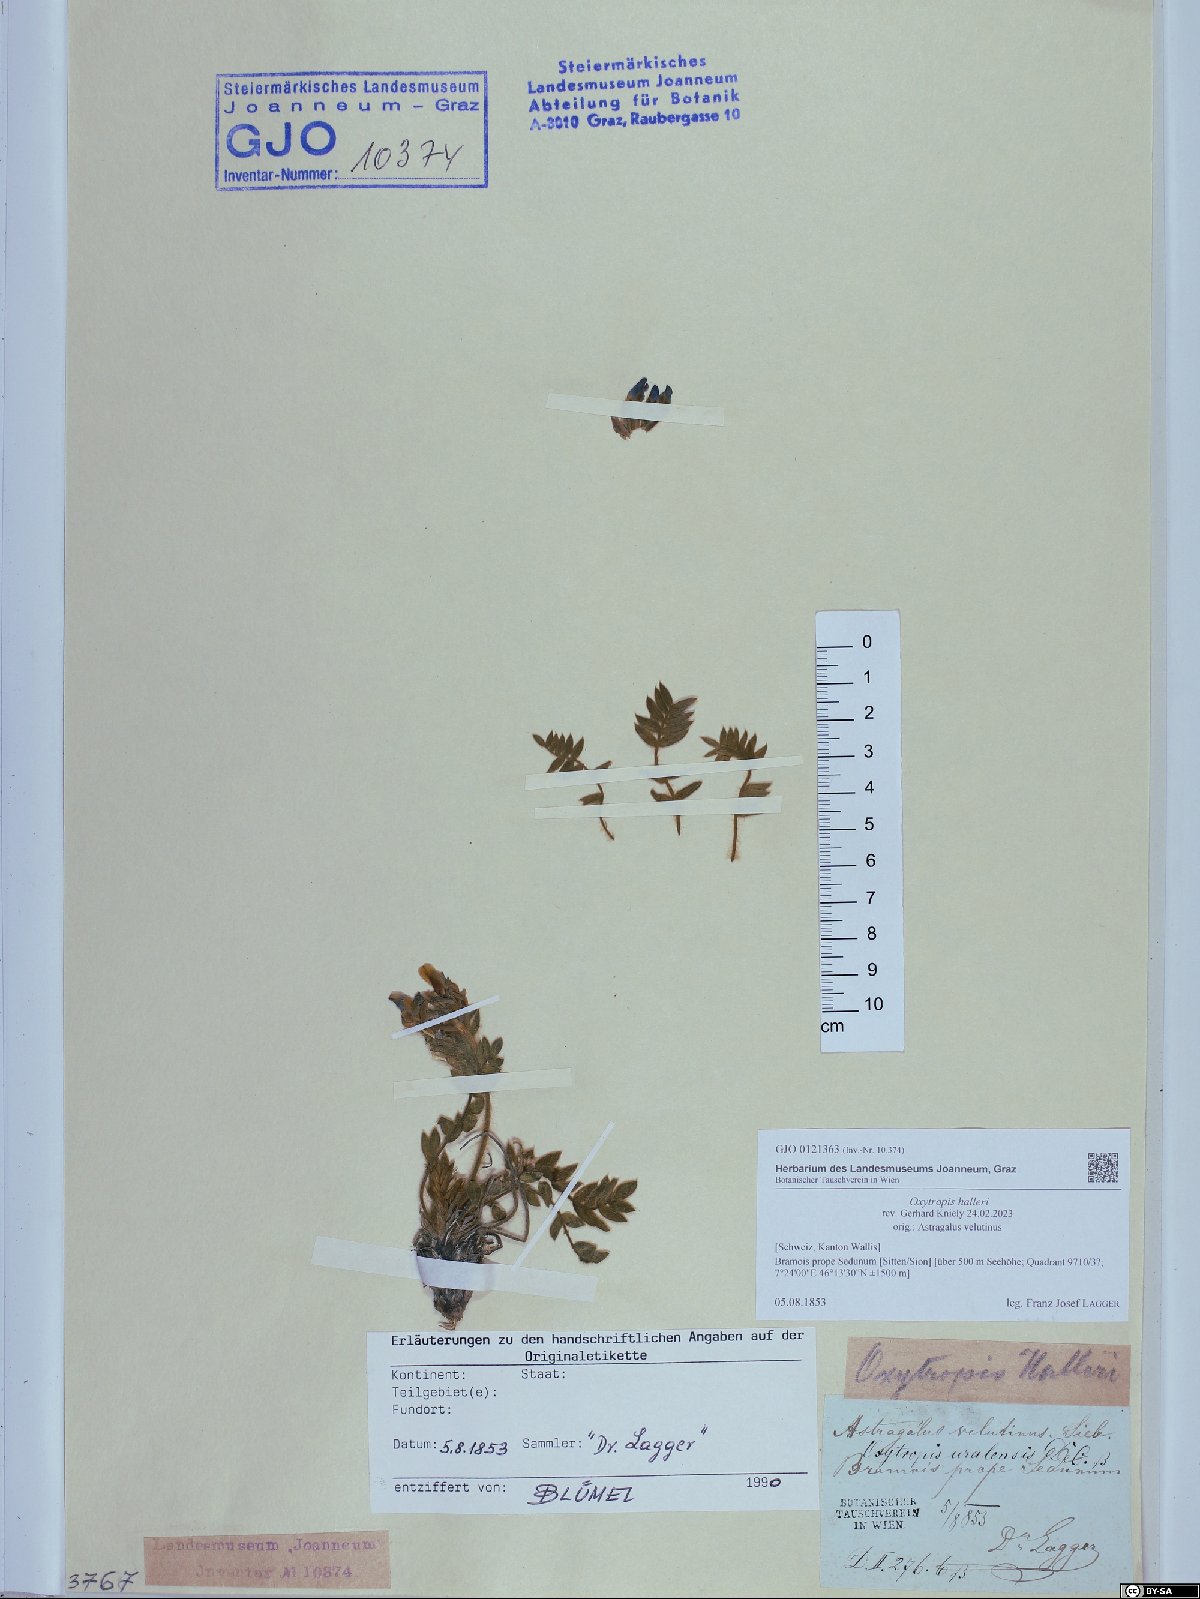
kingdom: Plantae
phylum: Tracheophyta
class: Magnoliopsida
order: Fabales
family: Fabaceae
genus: Oxytropis
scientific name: Oxytropis halleri
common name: Purple oxytropis
